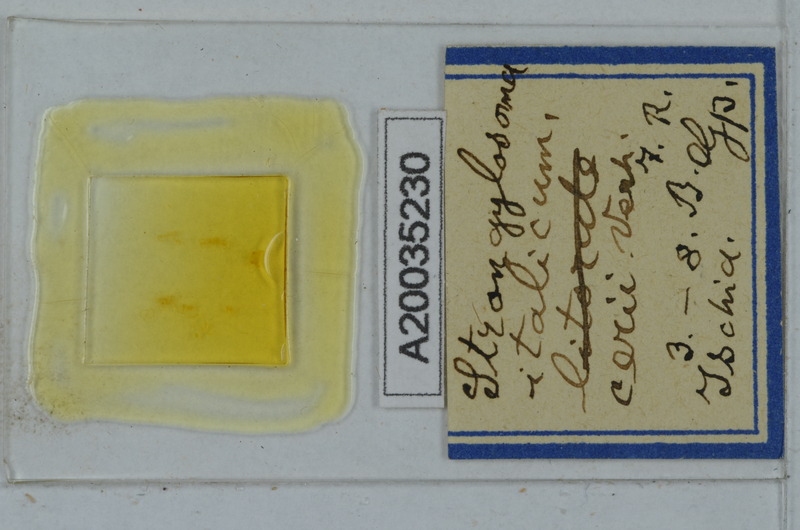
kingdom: Animalia
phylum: Arthropoda
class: Diplopoda
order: Polydesmida
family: Paradoxosomatidae
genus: Strongylosoma
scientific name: Strongylosoma italica
